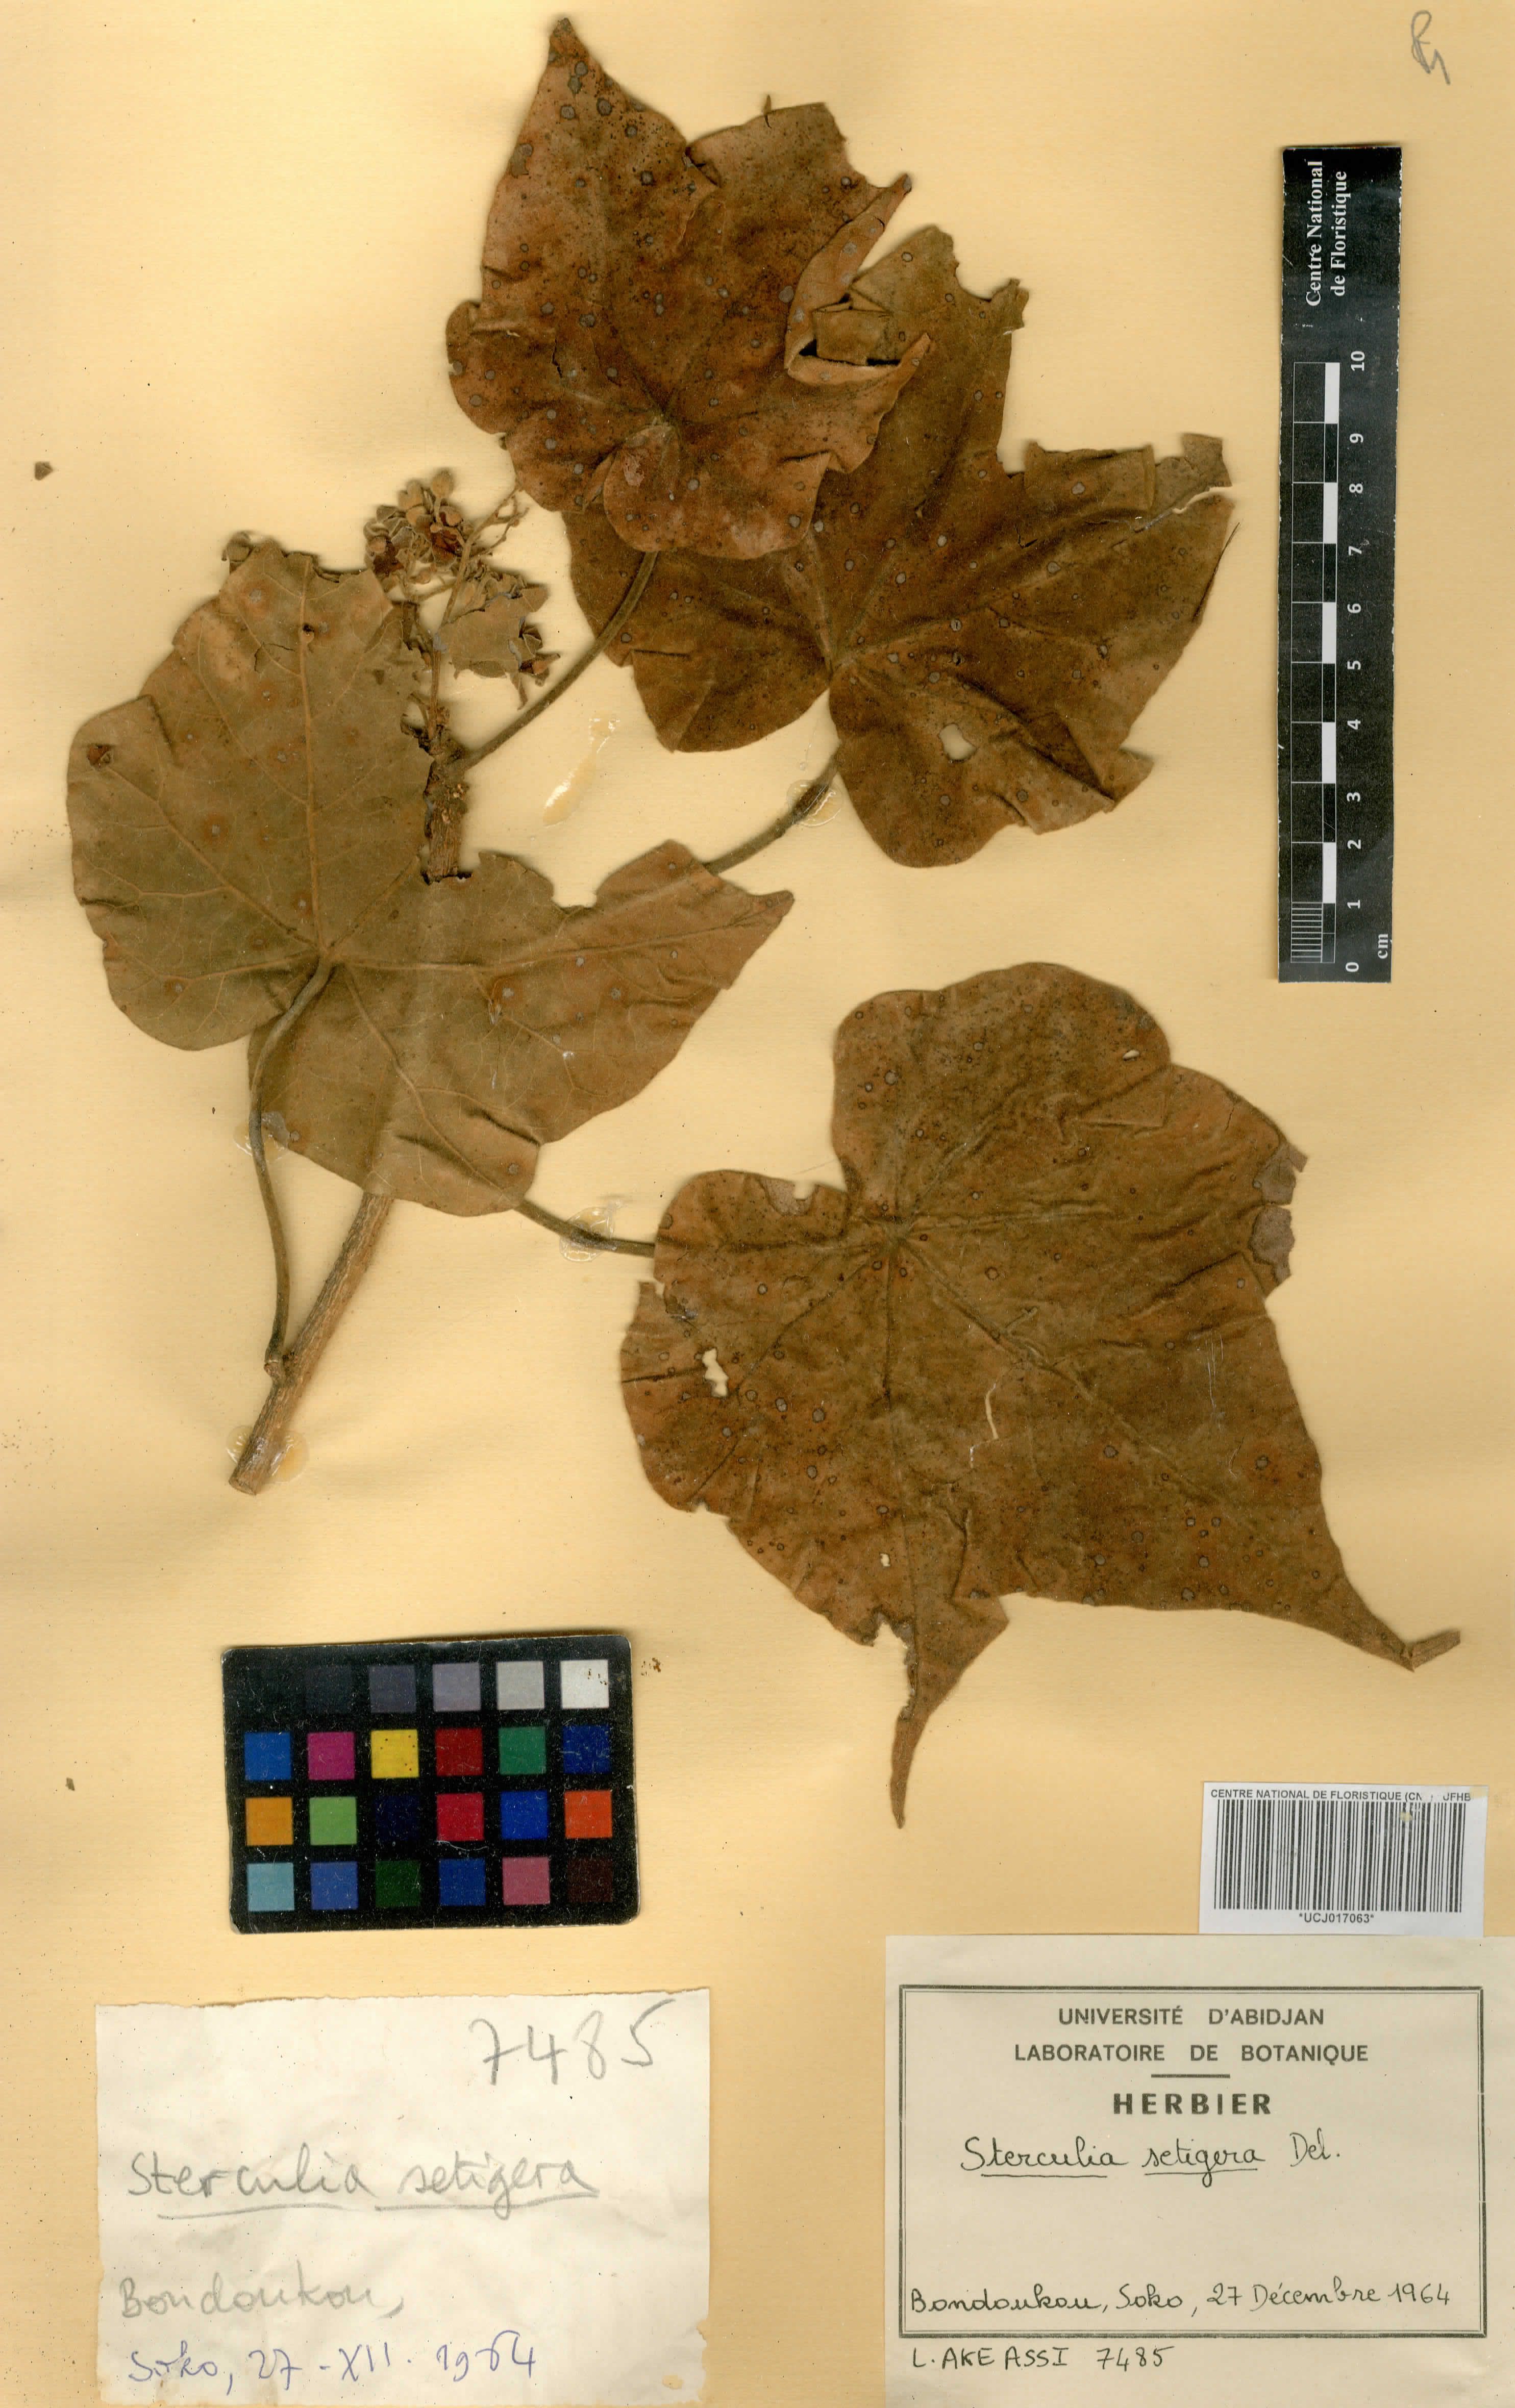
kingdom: Plantae
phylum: Tracheophyta
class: Magnoliopsida
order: Malvales
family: Malvaceae
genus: Sterculia
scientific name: Sterculia setigera
